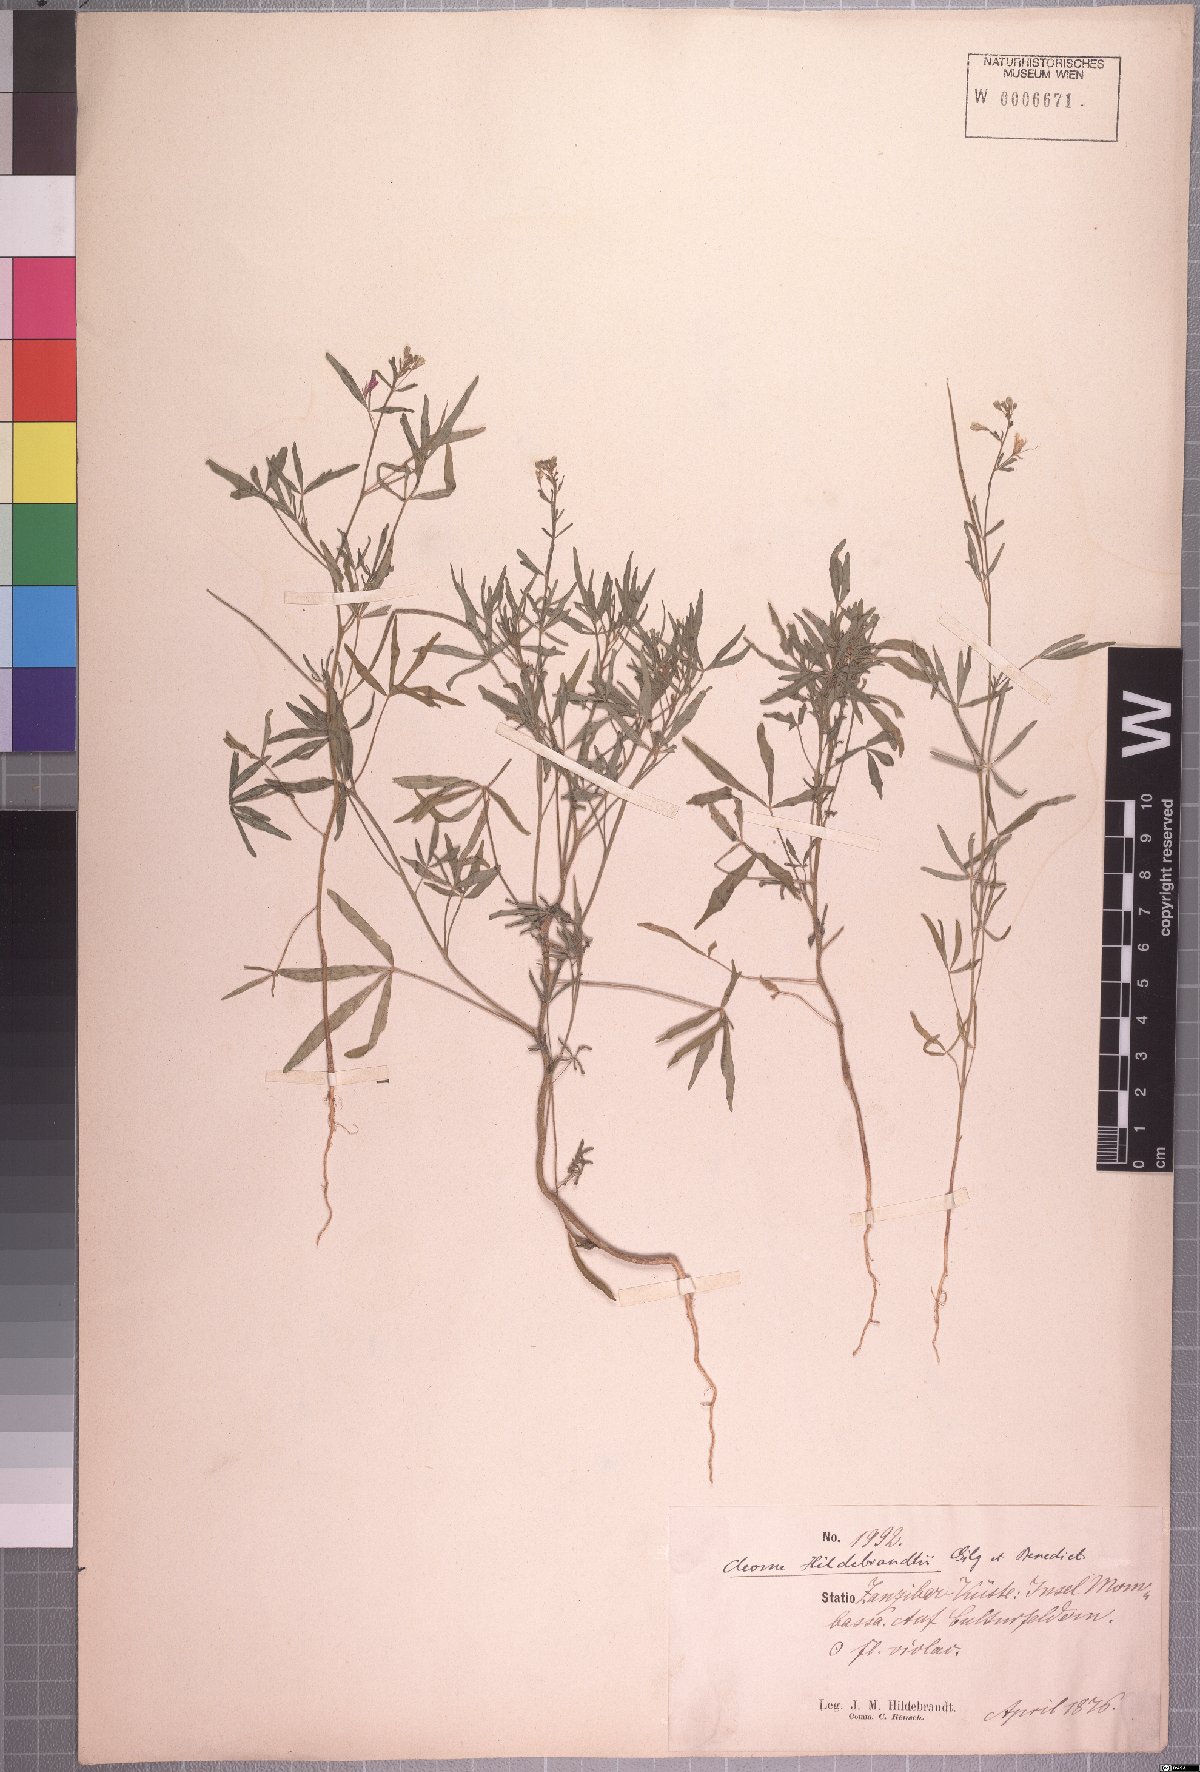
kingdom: Plantae
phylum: Tracheophyta
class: Magnoliopsida
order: Brassicales
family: Cleomaceae
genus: Sieruela
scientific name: Sieruela hirta
